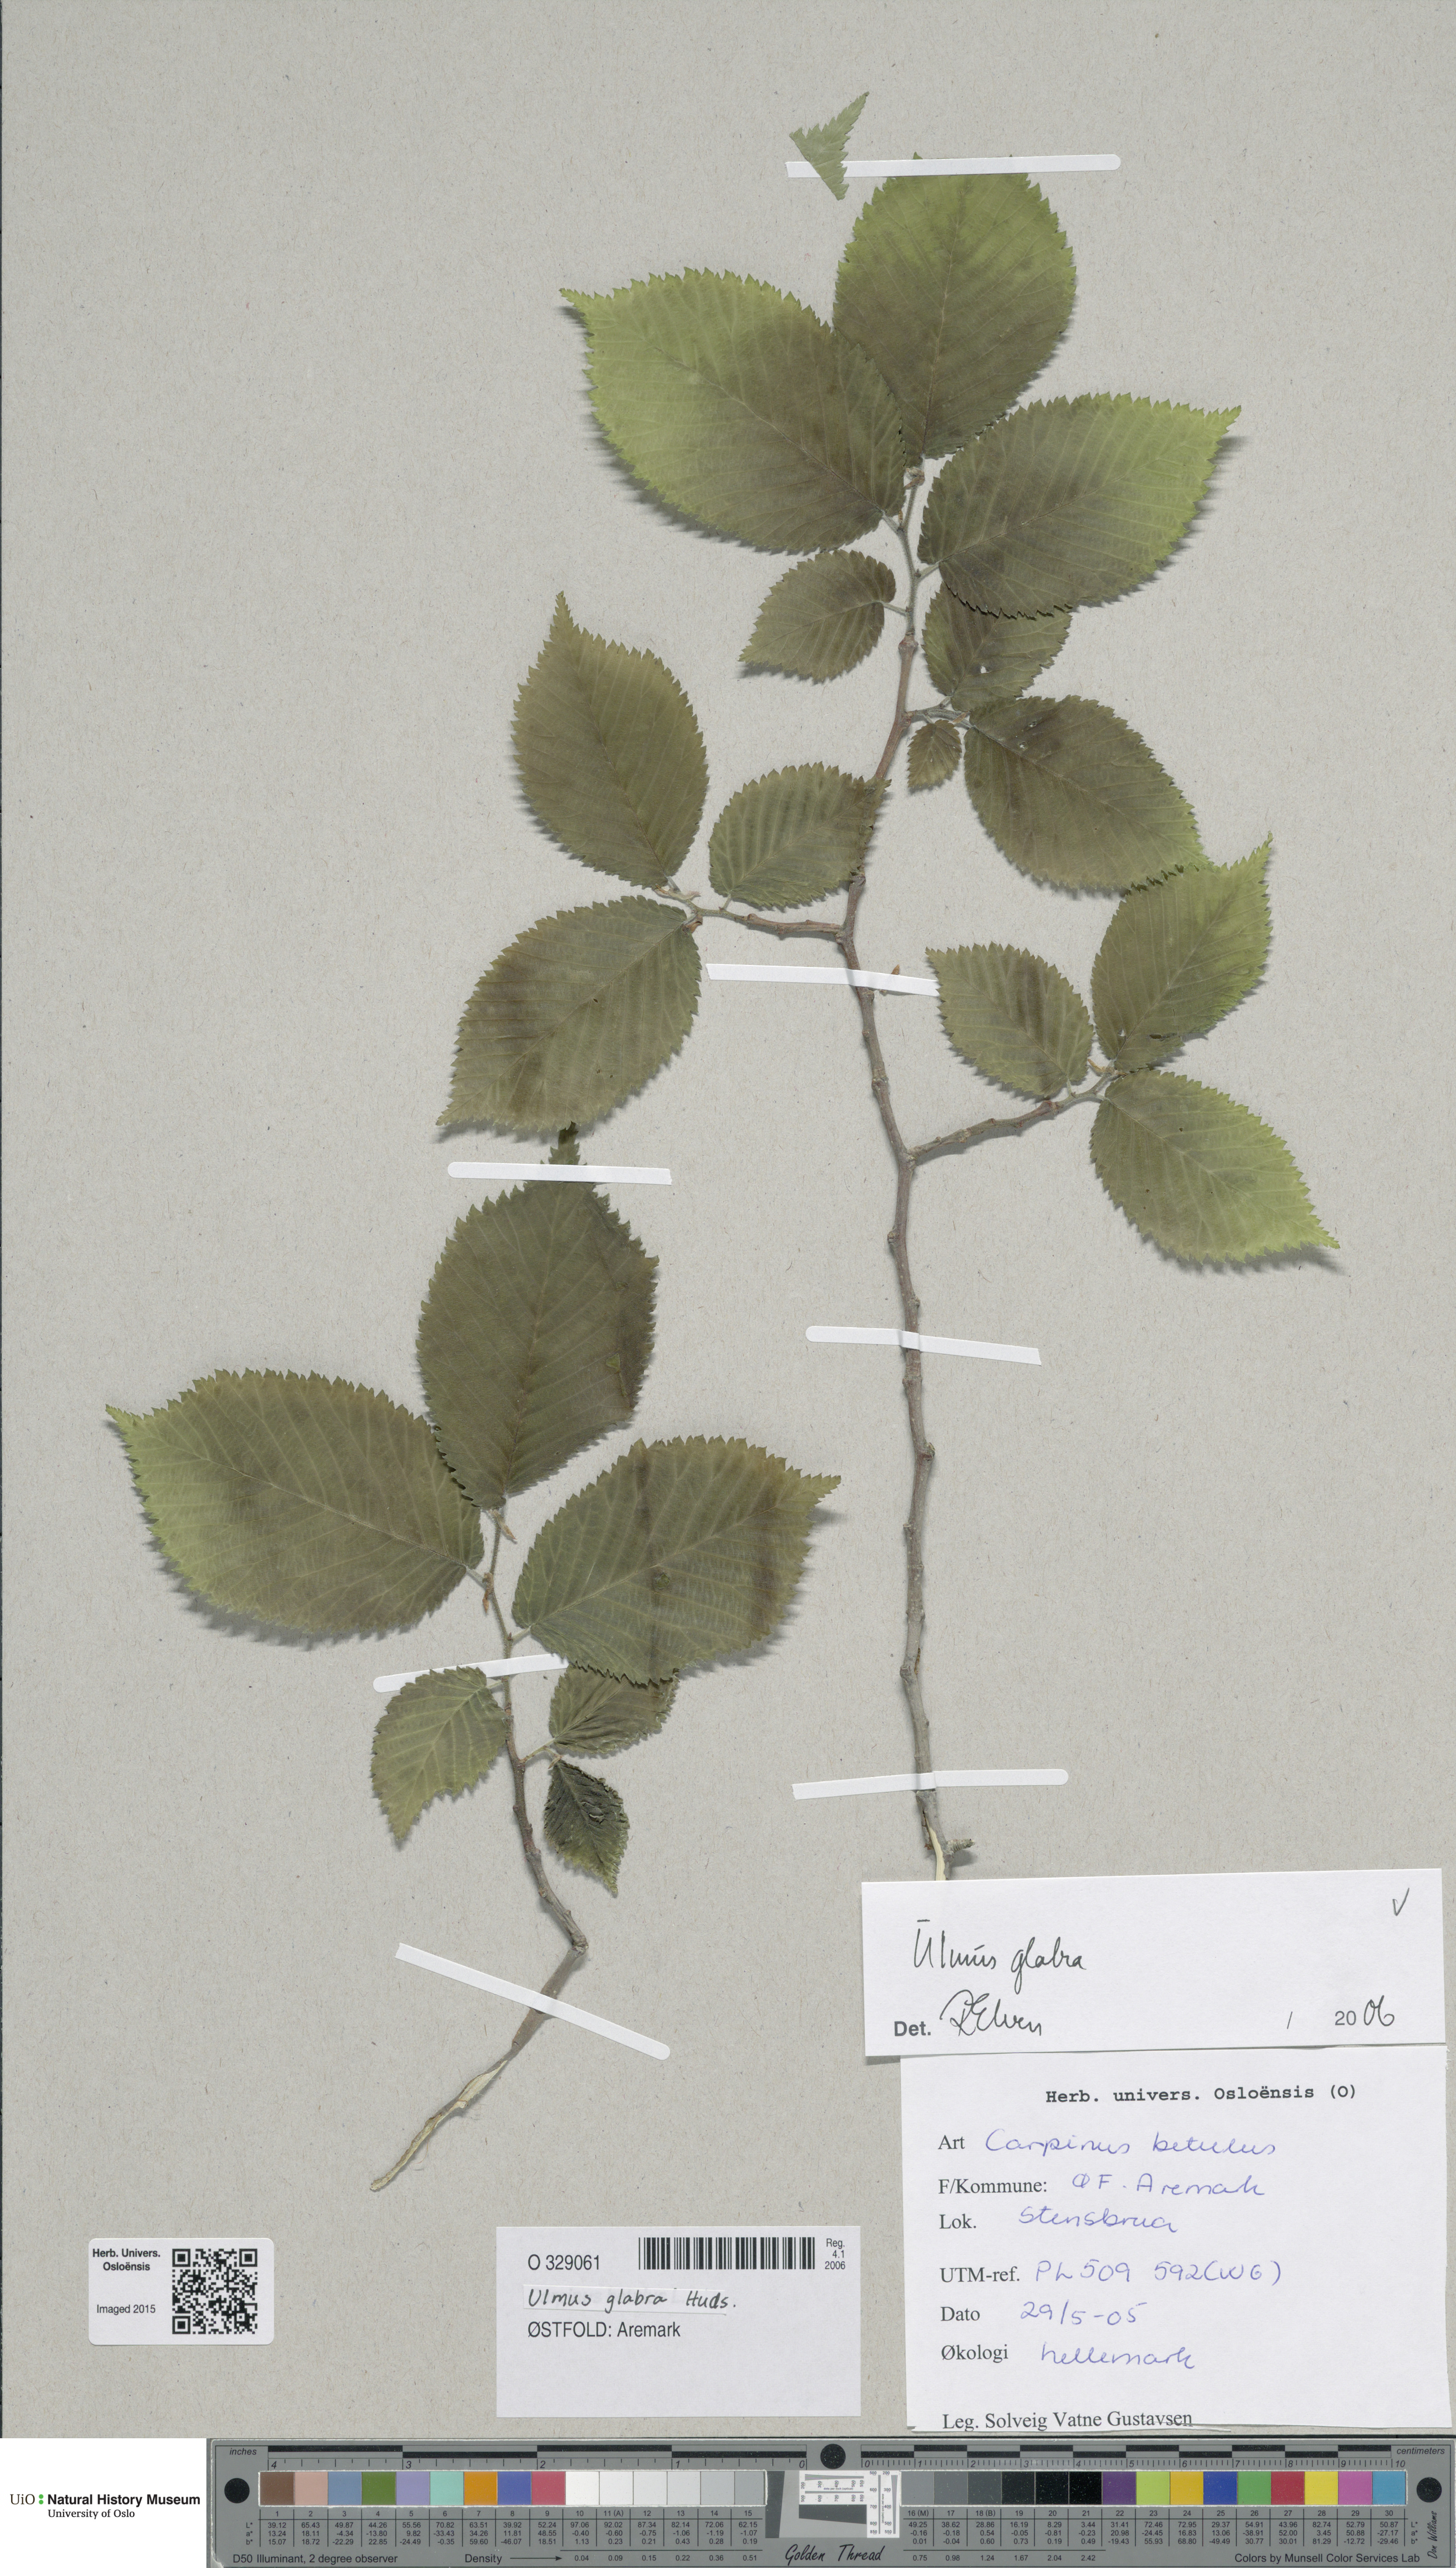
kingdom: Plantae
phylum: Tracheophyta
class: Magnoliopsida
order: Rosales
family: Ulmaceae
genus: Ulmus
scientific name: Ulmus glabra
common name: Wych elm
